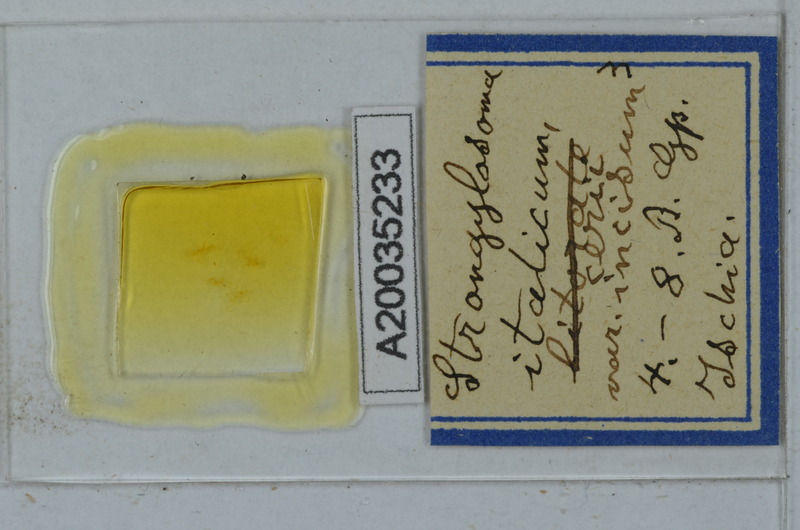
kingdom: Animalia
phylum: Arthropoda
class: Diplopoda
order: Polydesmida
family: Paradoxosomatidae
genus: Strongylosoma
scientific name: Strongylosoma italica
